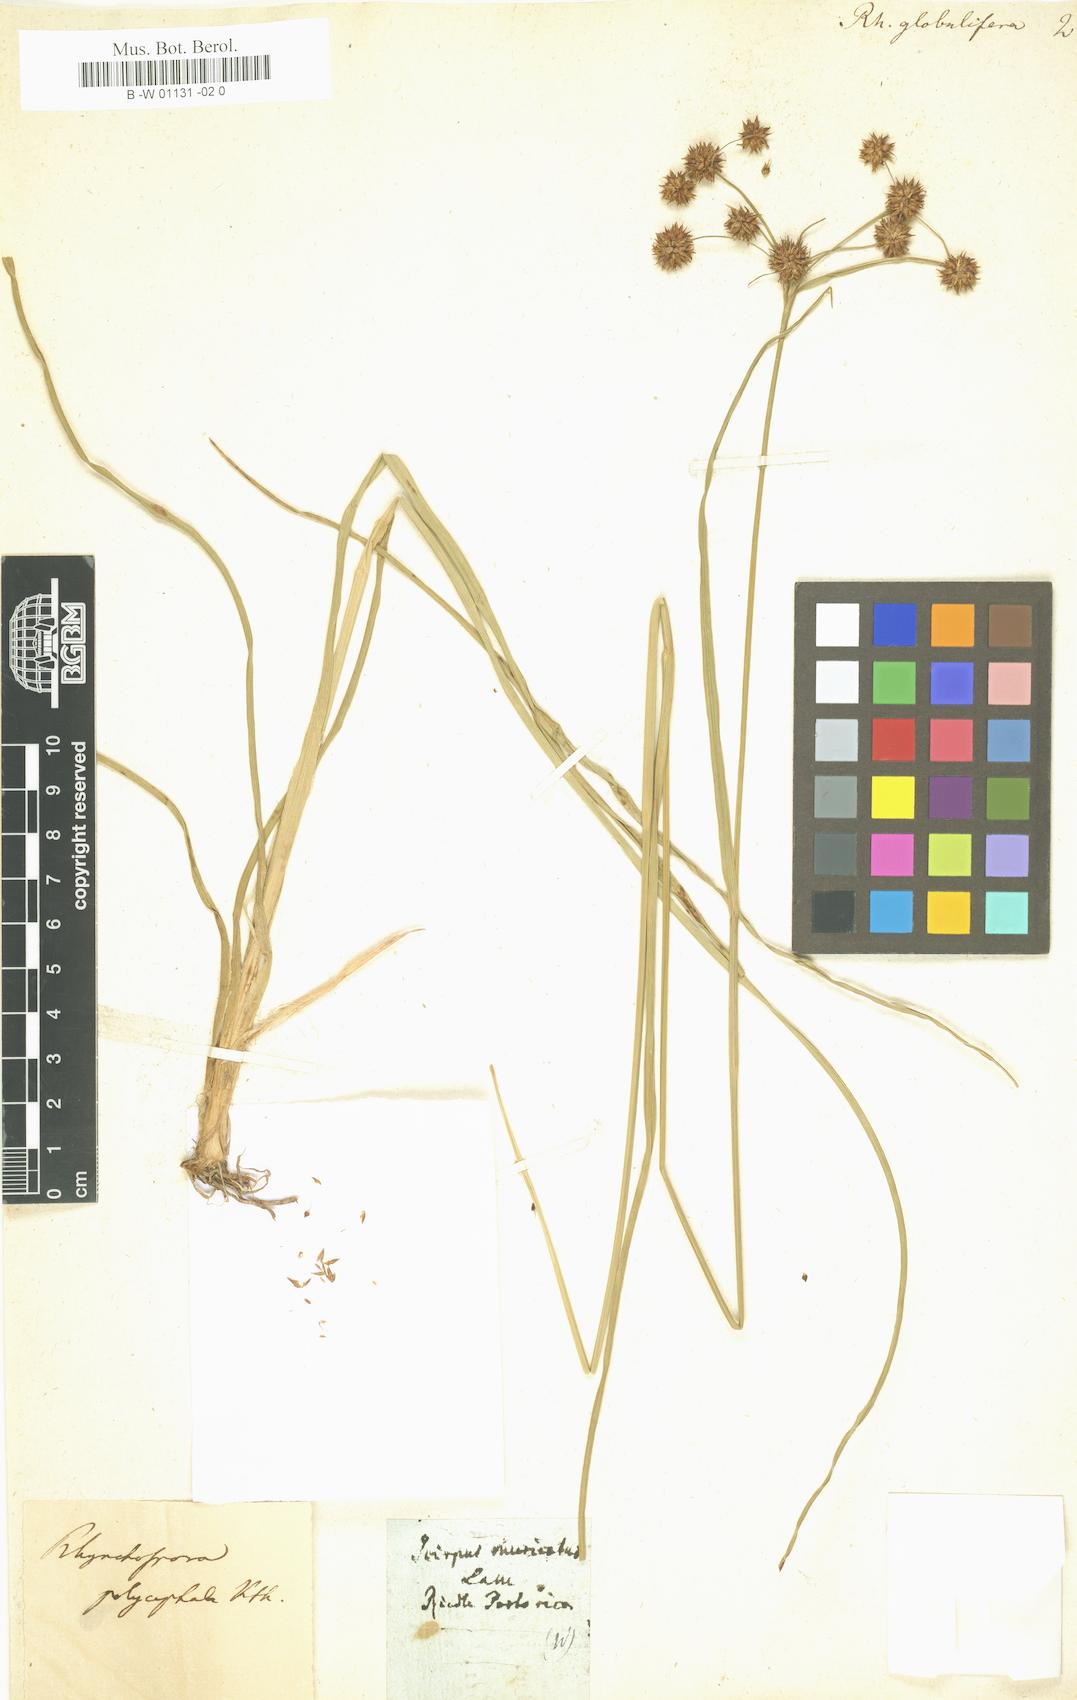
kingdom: Plantae
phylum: Tracheophyta
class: Liliopsida
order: Poales
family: Cyperaceae
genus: Rhynchospora
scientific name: Rhynchospora holoschoenoides
